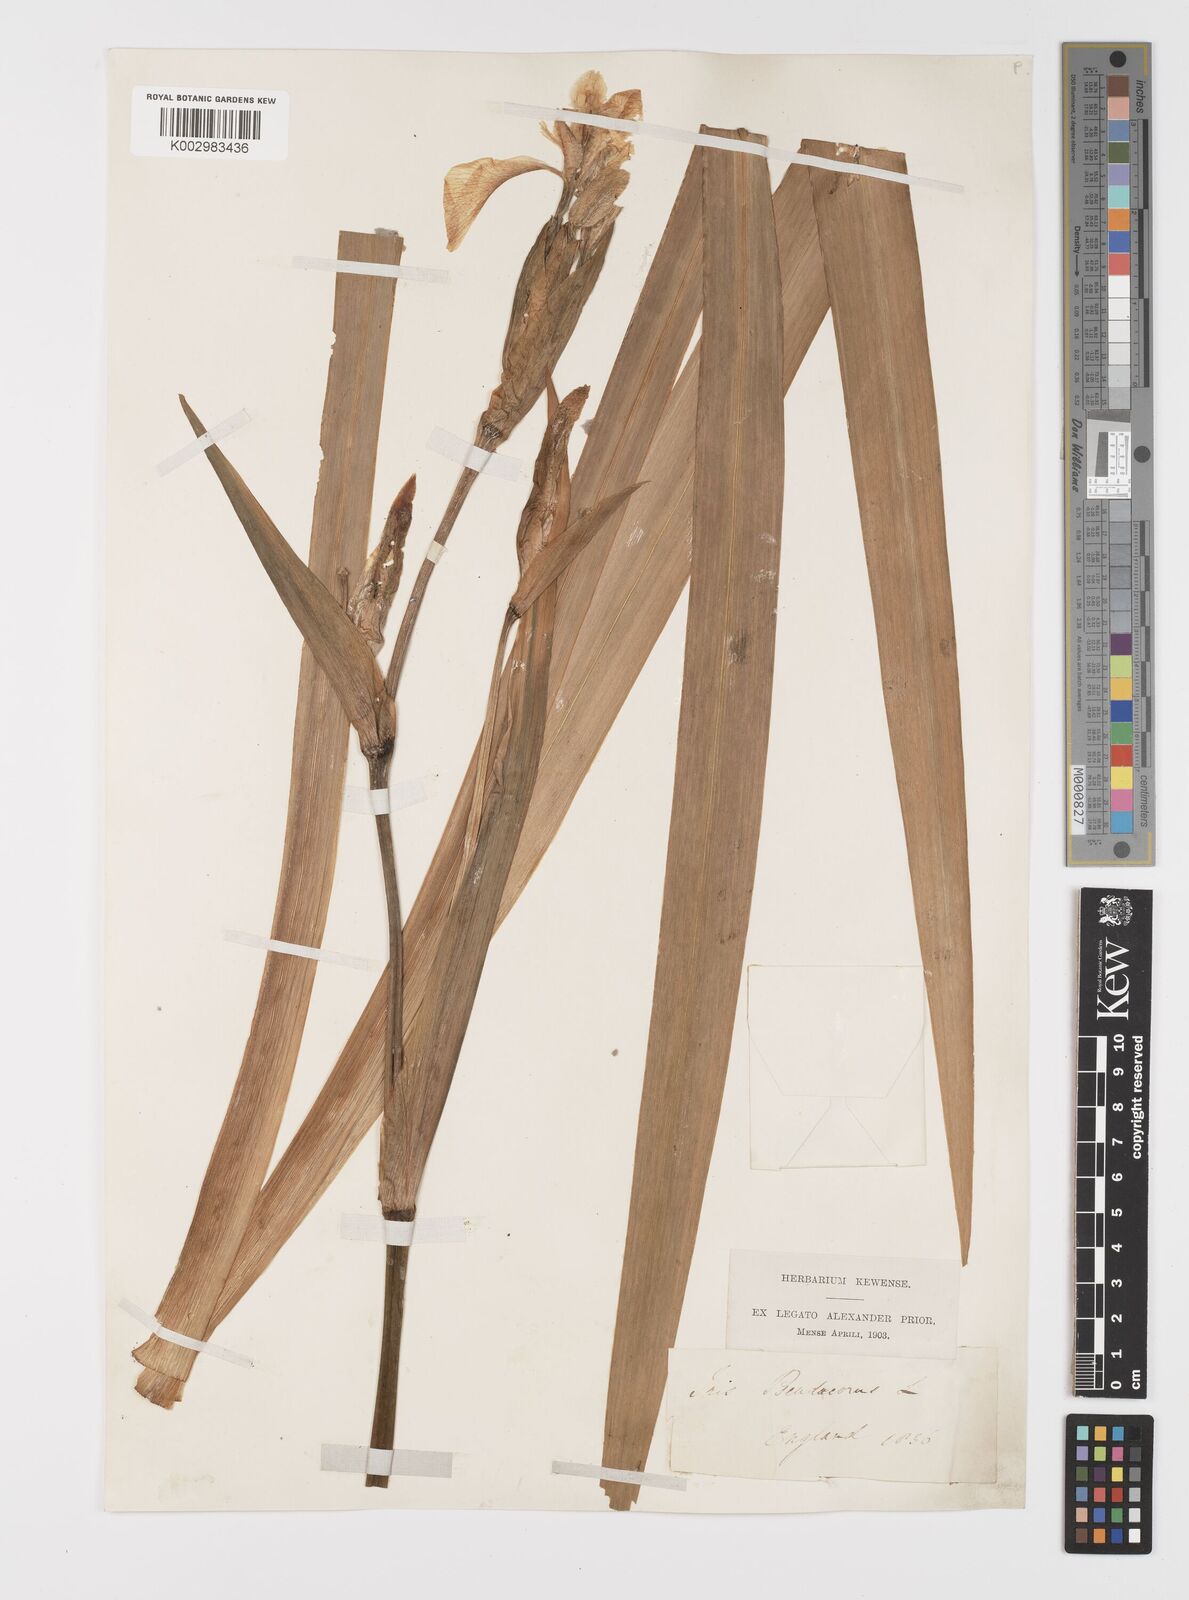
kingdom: Plantae
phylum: Tracheophyta
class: Liliopsida
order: Asparagales
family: Iridaceae
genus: Iris
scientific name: Iris pseudacorus
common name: Yellow flag
